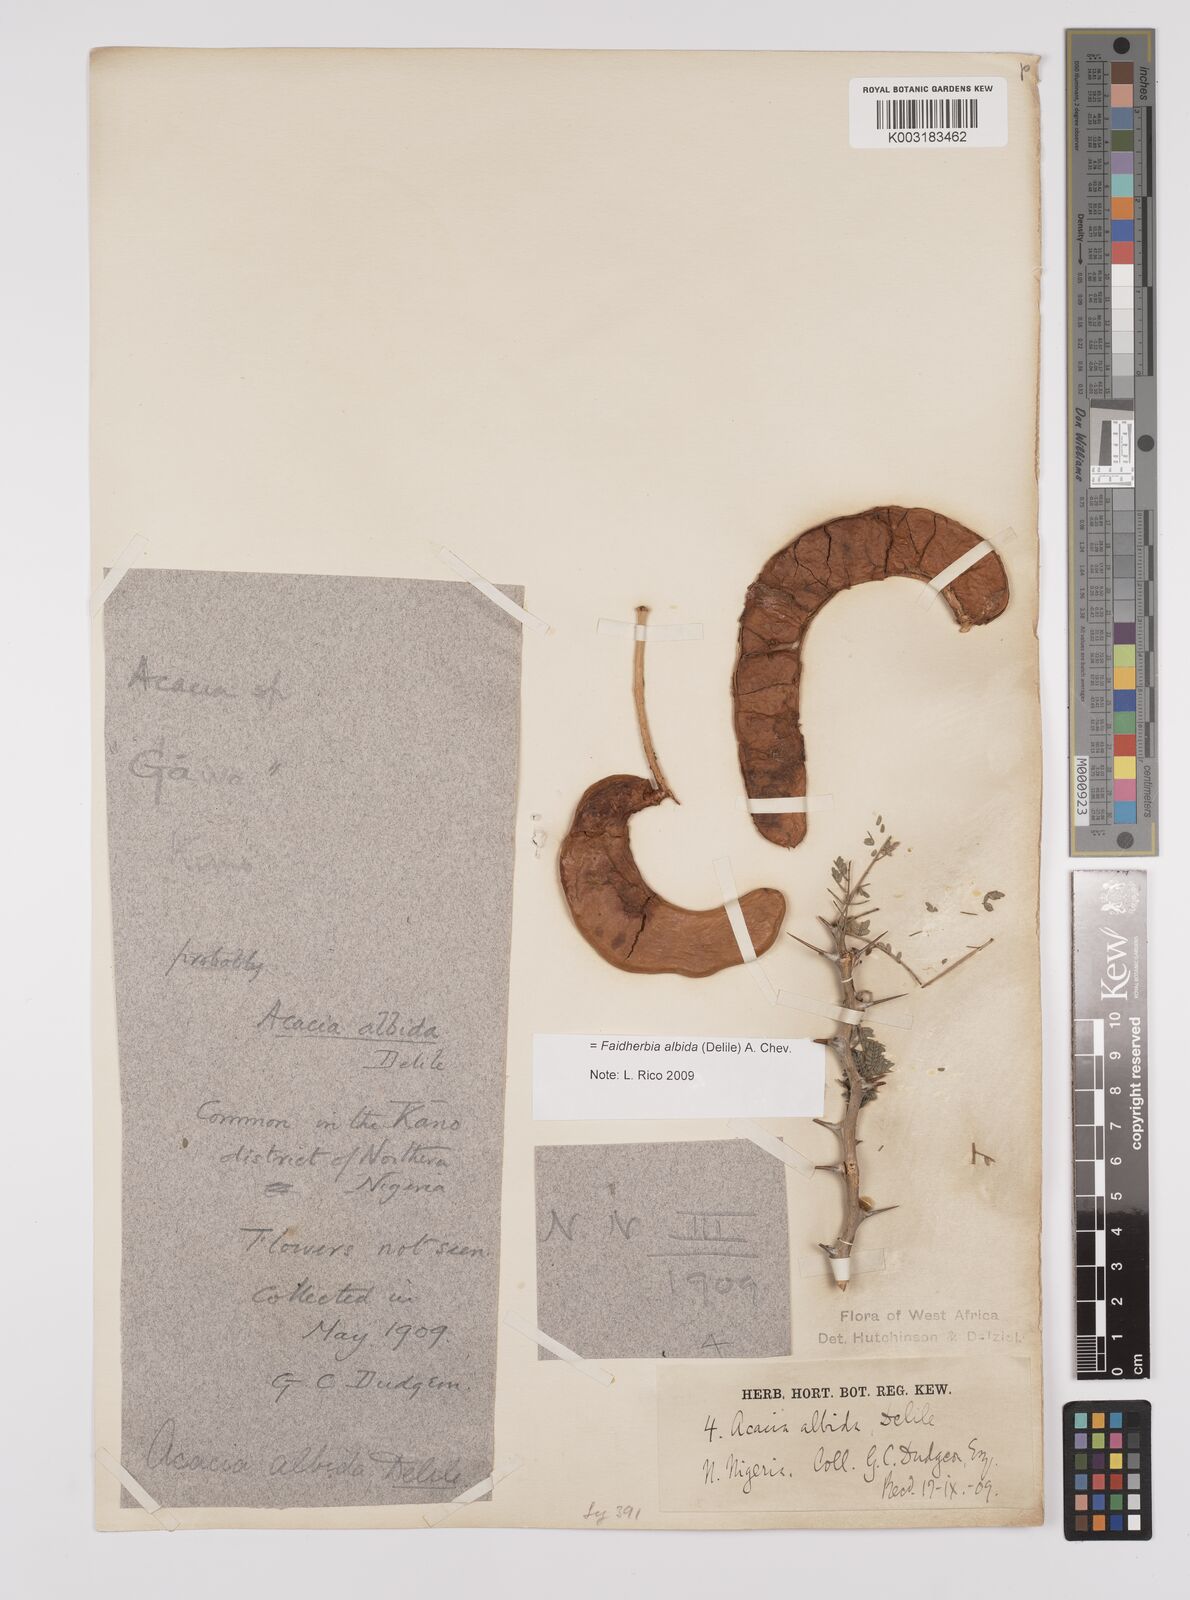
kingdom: Plantae
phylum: Tracheophyta
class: Magnoliopsida
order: Fabales
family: Fabaceae
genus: Faidherbia
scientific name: Faidherbia albida
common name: Anatree
